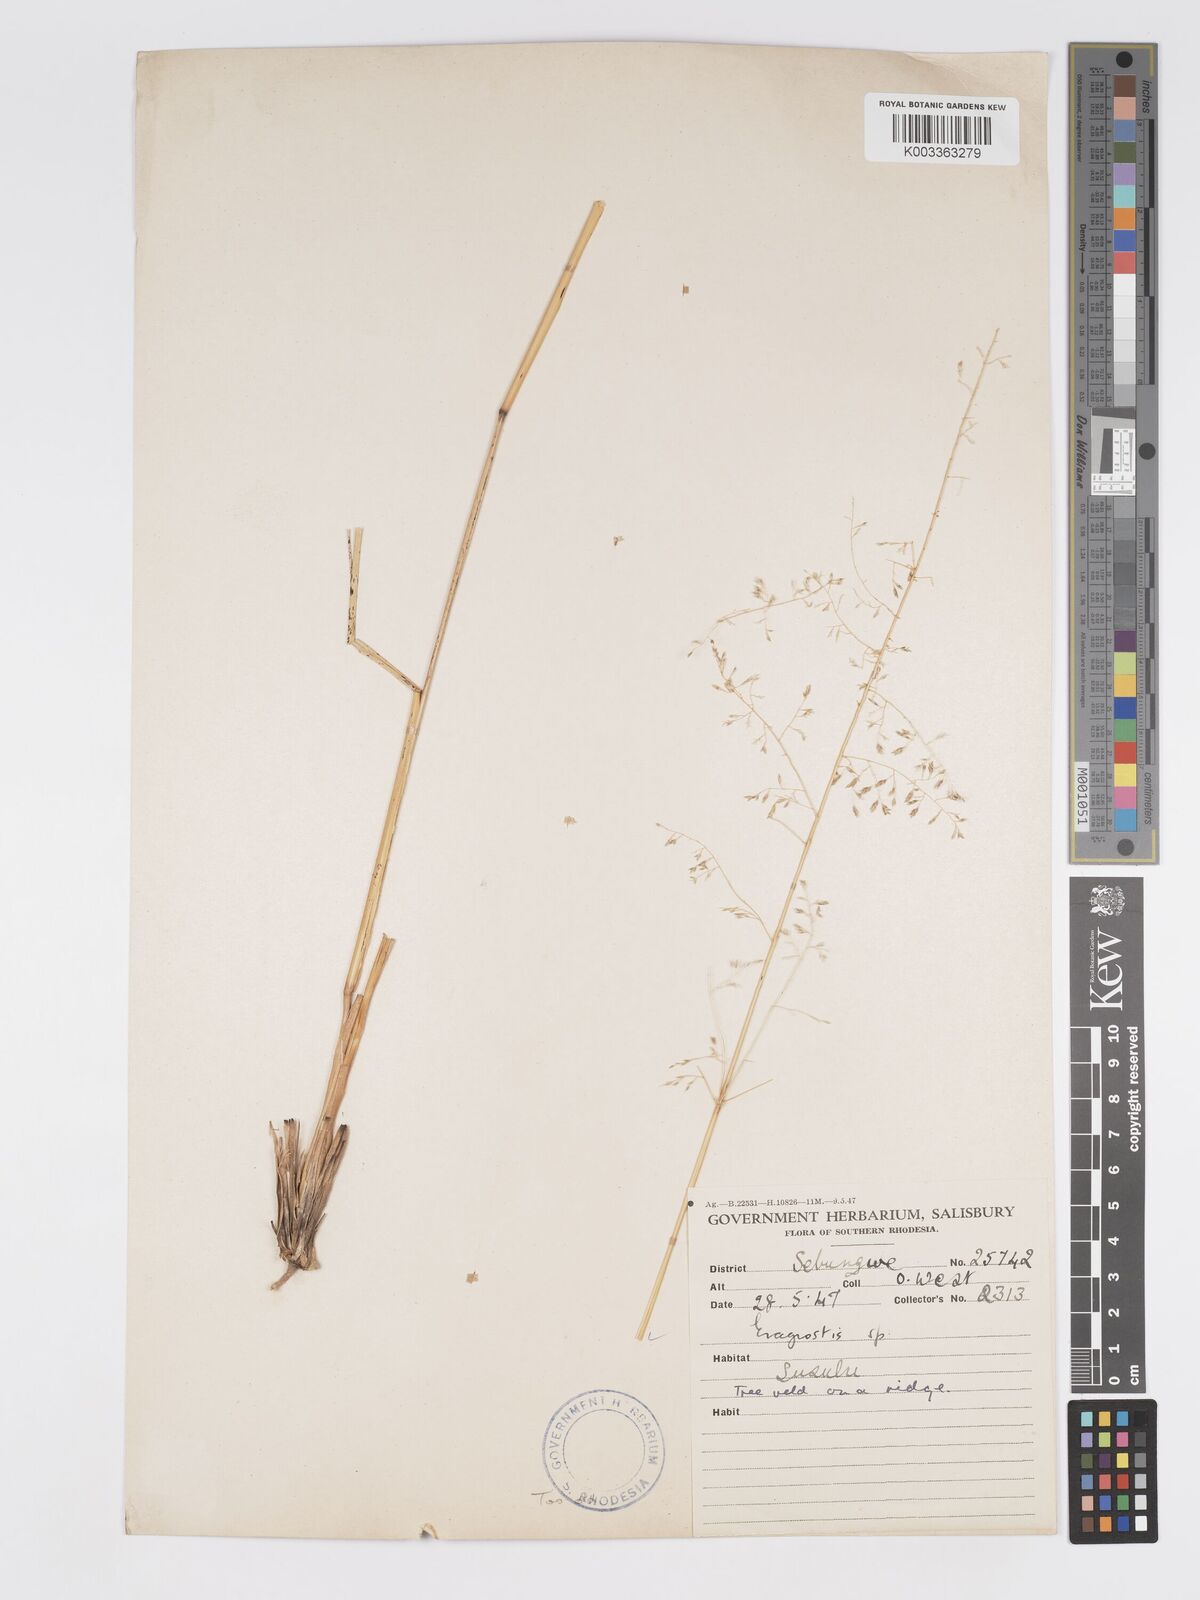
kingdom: Plantae
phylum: Tracheophyta
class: Liliopsida
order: Poales
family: Poaceae
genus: Eragrostis
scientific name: Eragrostis curvula
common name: African love-grass
